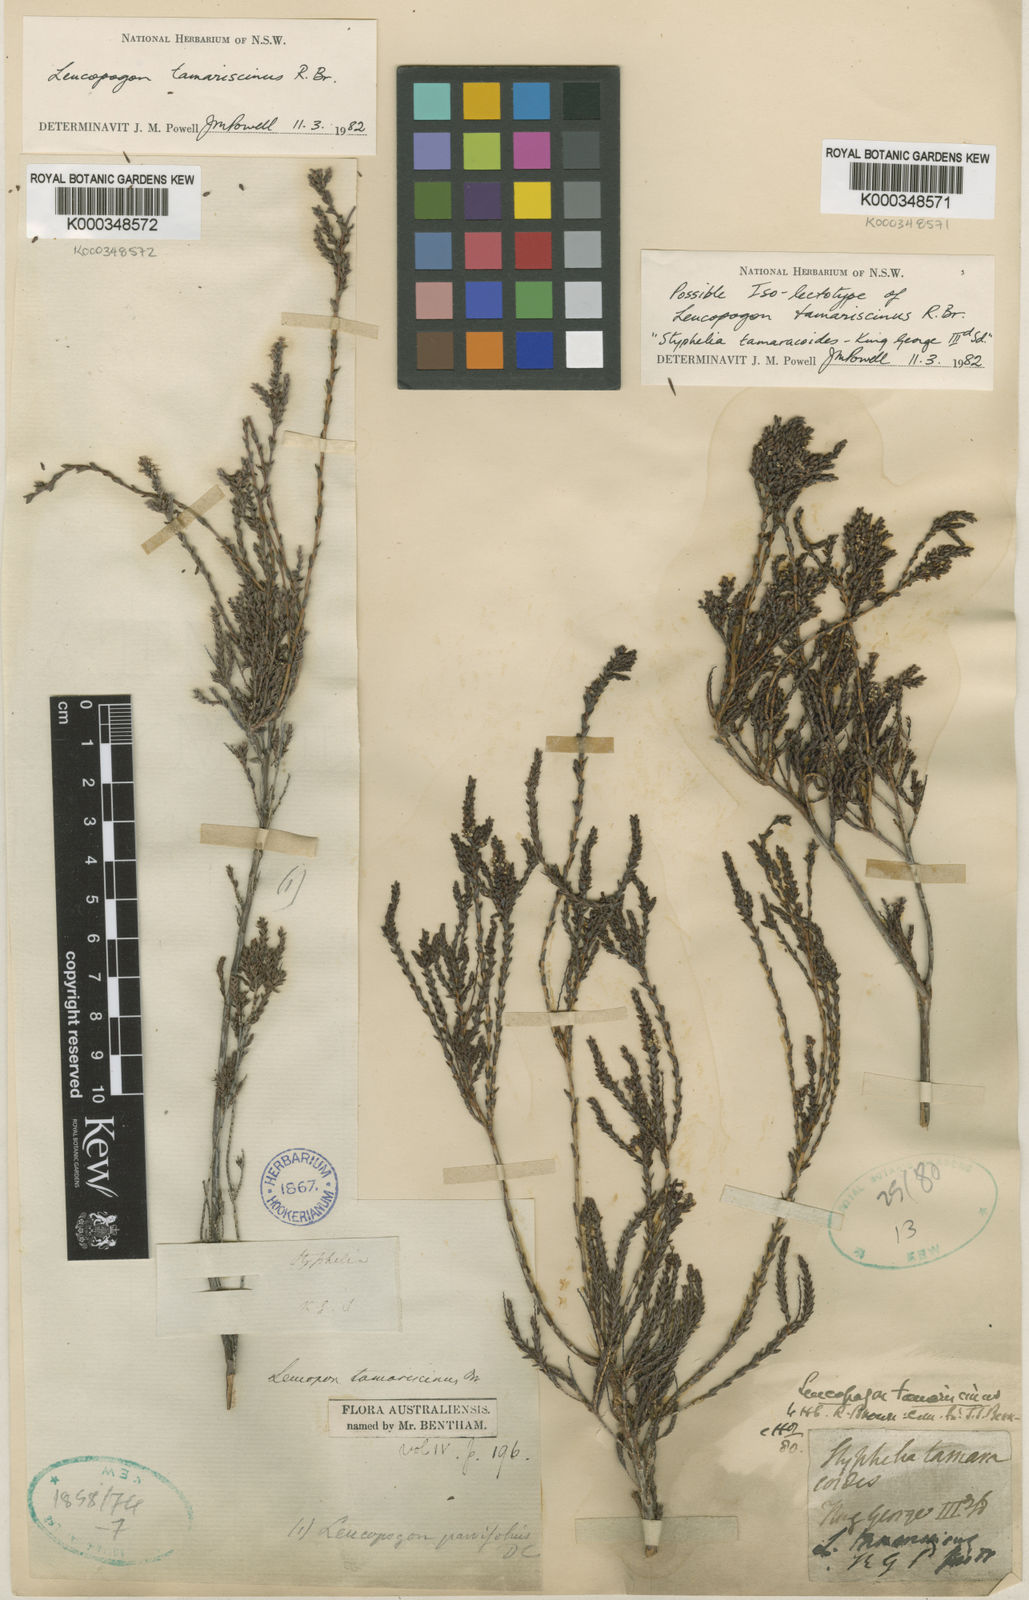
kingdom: Plantae
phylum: Tracheophyta
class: Magnoliopsida
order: Ericales
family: Ericaceae
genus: Leucopogon
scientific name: Leucopogon tamariscinus
